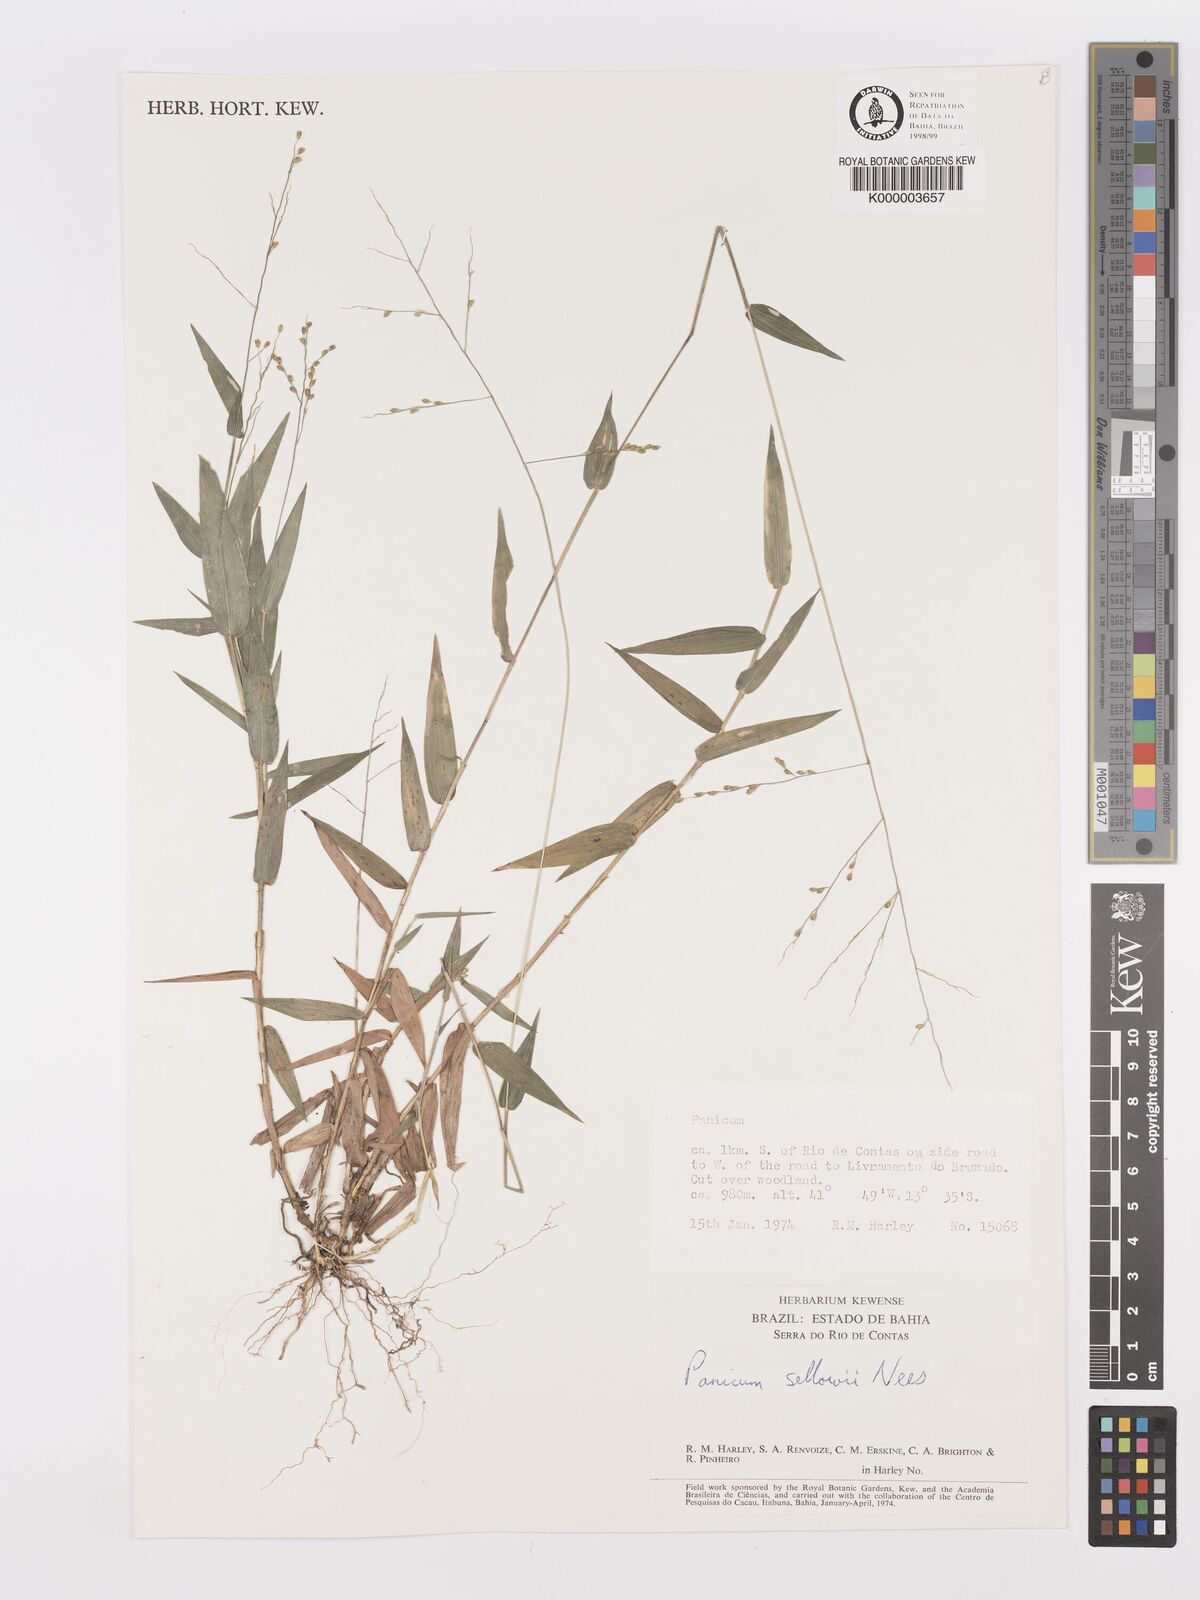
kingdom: Plantae
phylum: Tracheophyta
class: Liliopsida
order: Poales
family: Poaceae
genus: Panicum
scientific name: Panicum sellowii
